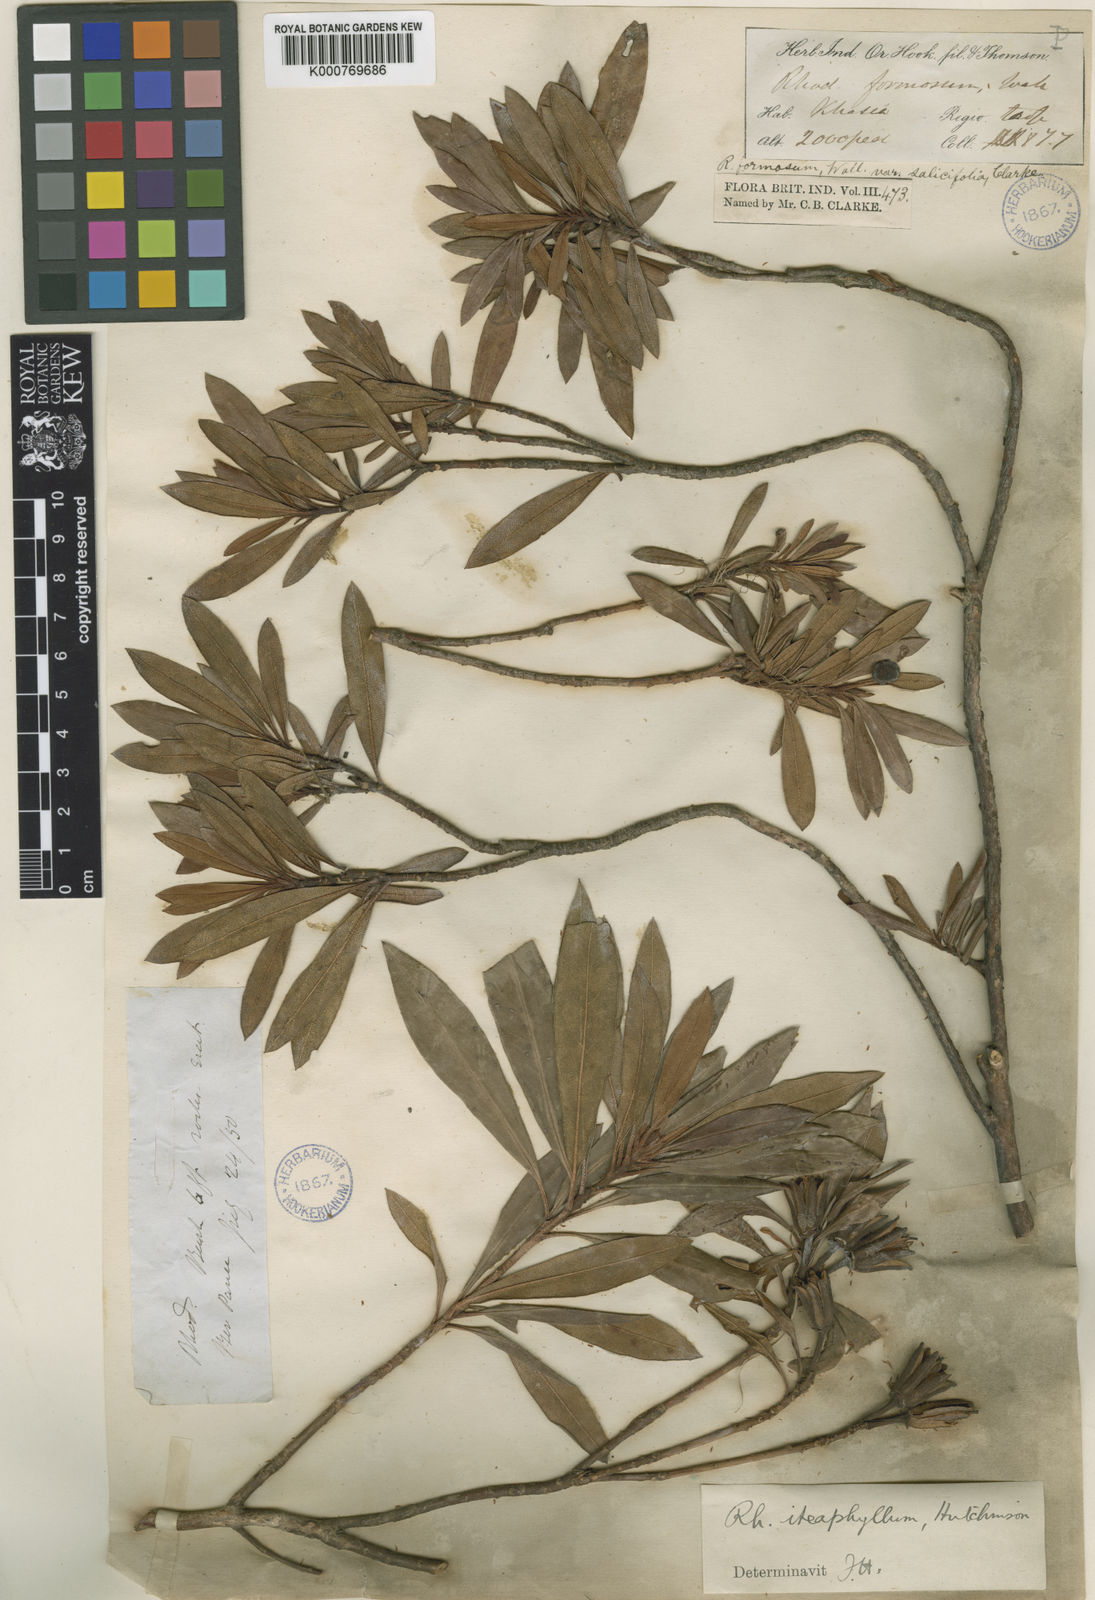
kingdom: Plantae
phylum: Tracheophyta
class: Magnoliopsida
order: Ericales
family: Ericaceae
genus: Rhododendron
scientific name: Rhododendron formosum
